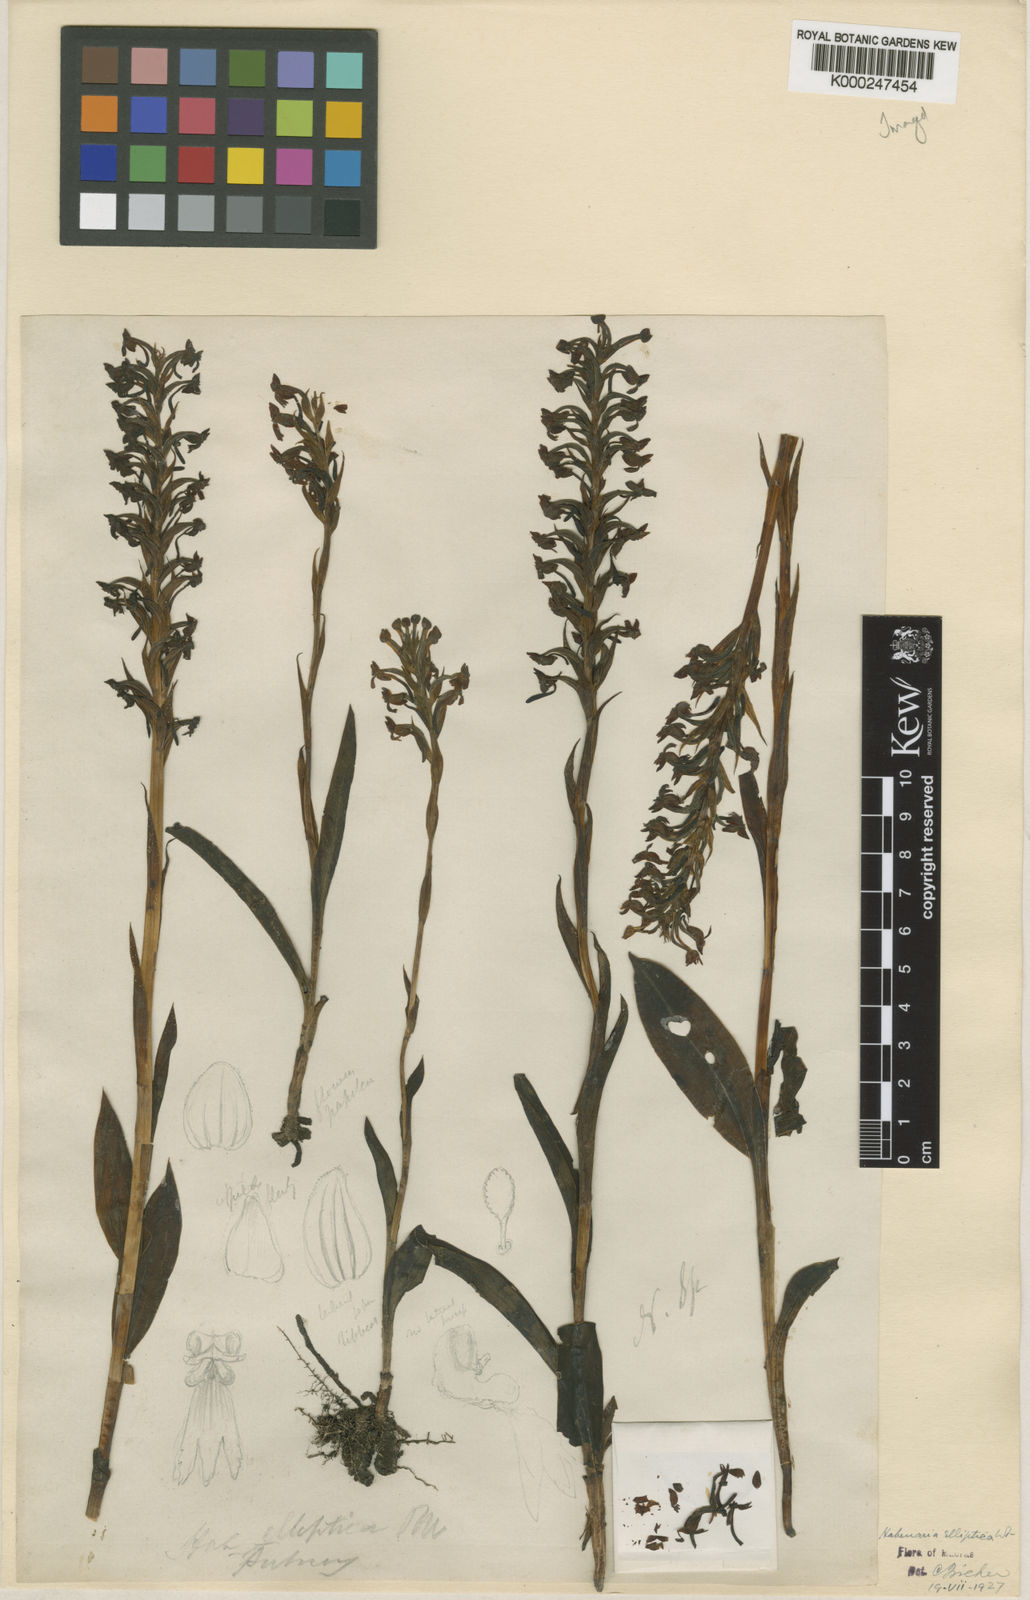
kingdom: Plantae
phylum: Tracheophyta
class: Liliopsida
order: Asparagales
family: Orchidaceae
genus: Habenaria
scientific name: Habenaria elliptica
